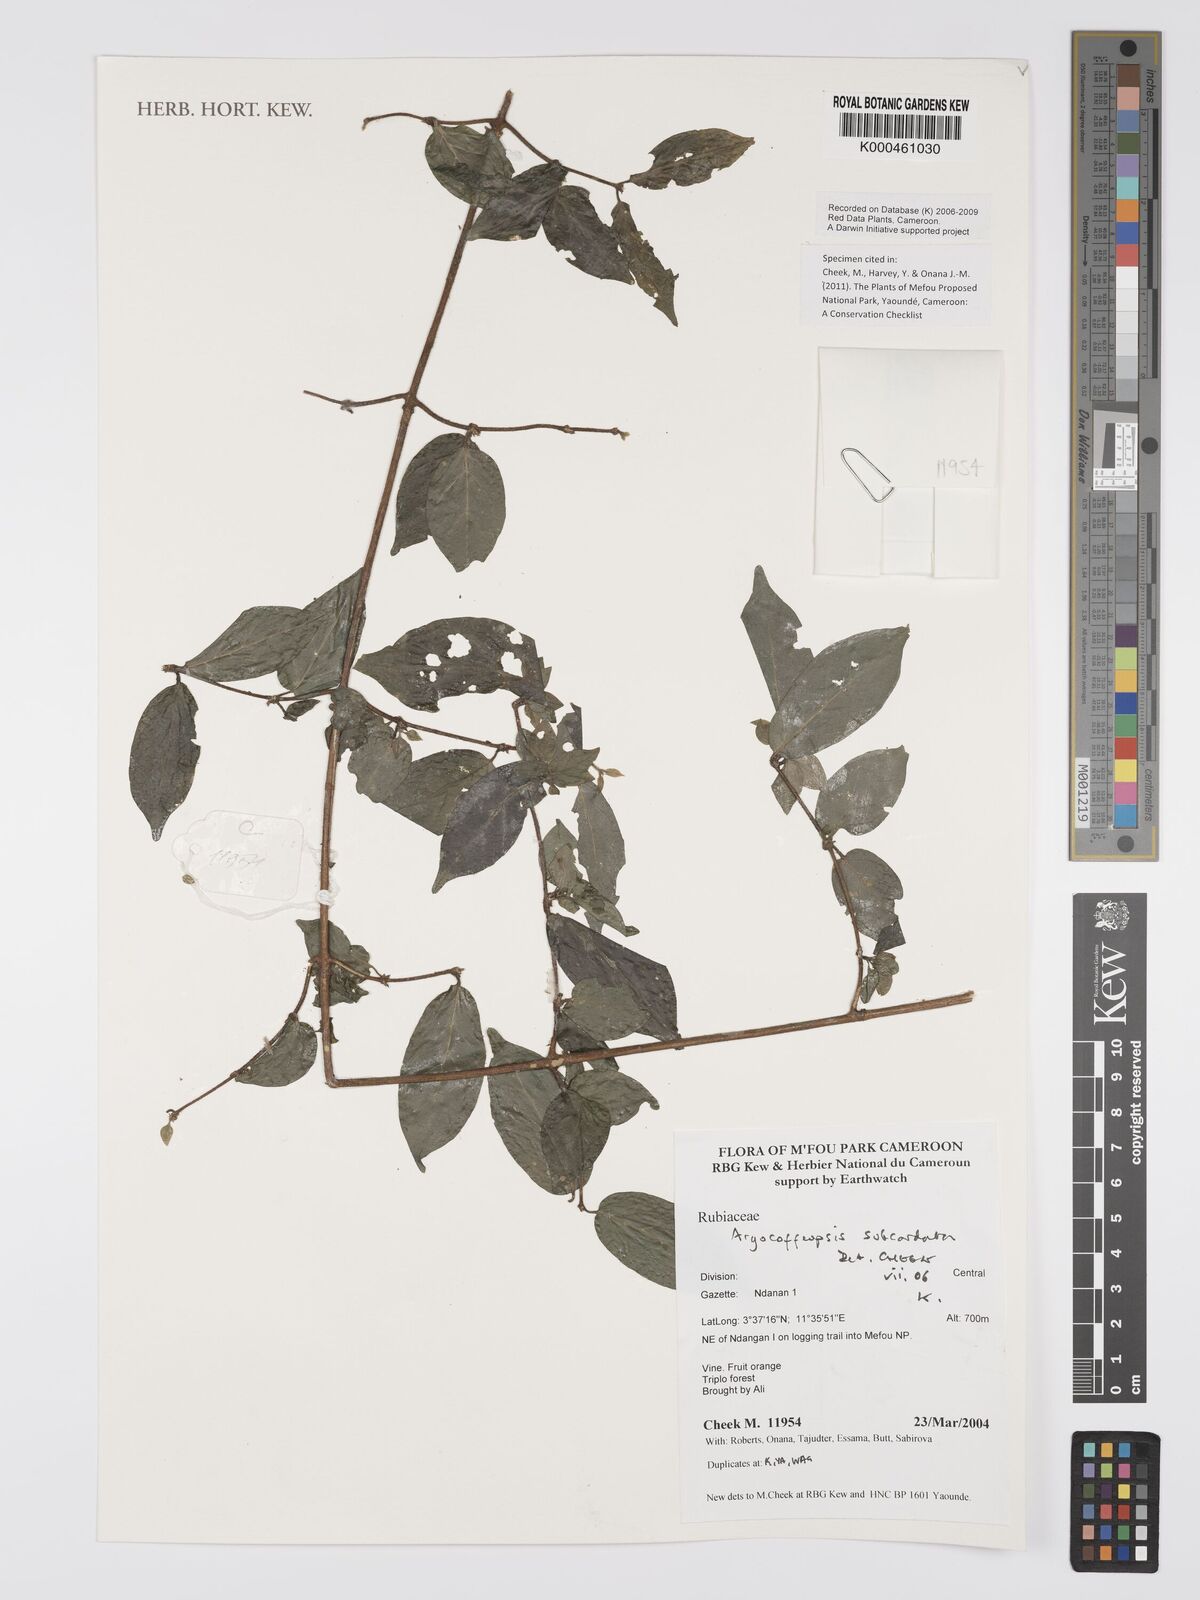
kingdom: Plantae
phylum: Tracheophyta
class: Magnoliopsida
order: Gentianales
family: Rubiaceae
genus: Argocoffeopsis
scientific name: Argocoffeopsis subcordata
